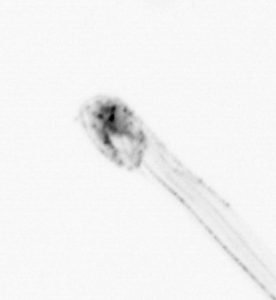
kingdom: Animalia
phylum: Chaetognatha
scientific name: Chaetognatha
